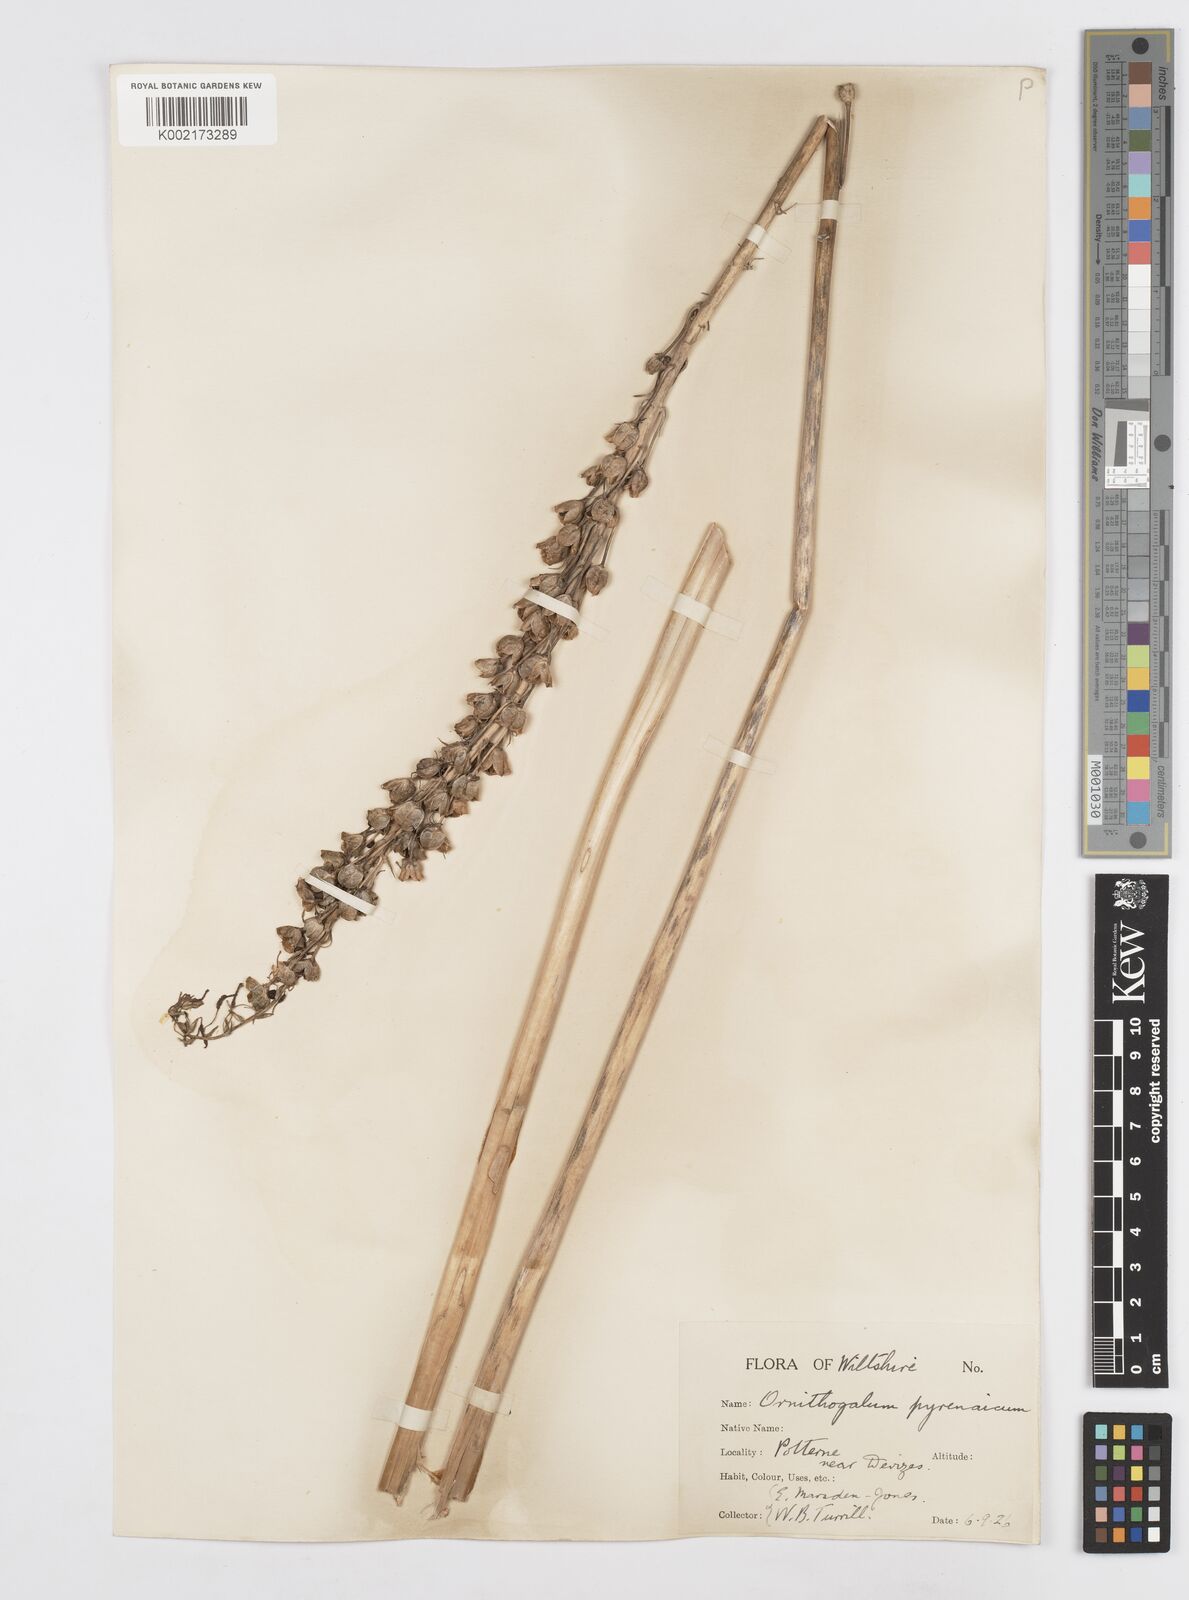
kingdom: Plantae
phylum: Tracheophyta
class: Liliopsida
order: Asparagales
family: Asparagaceae
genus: Ornithogalum
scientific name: Ornithogalum pyrenaicum
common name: Spiked star-of-bethlehem
